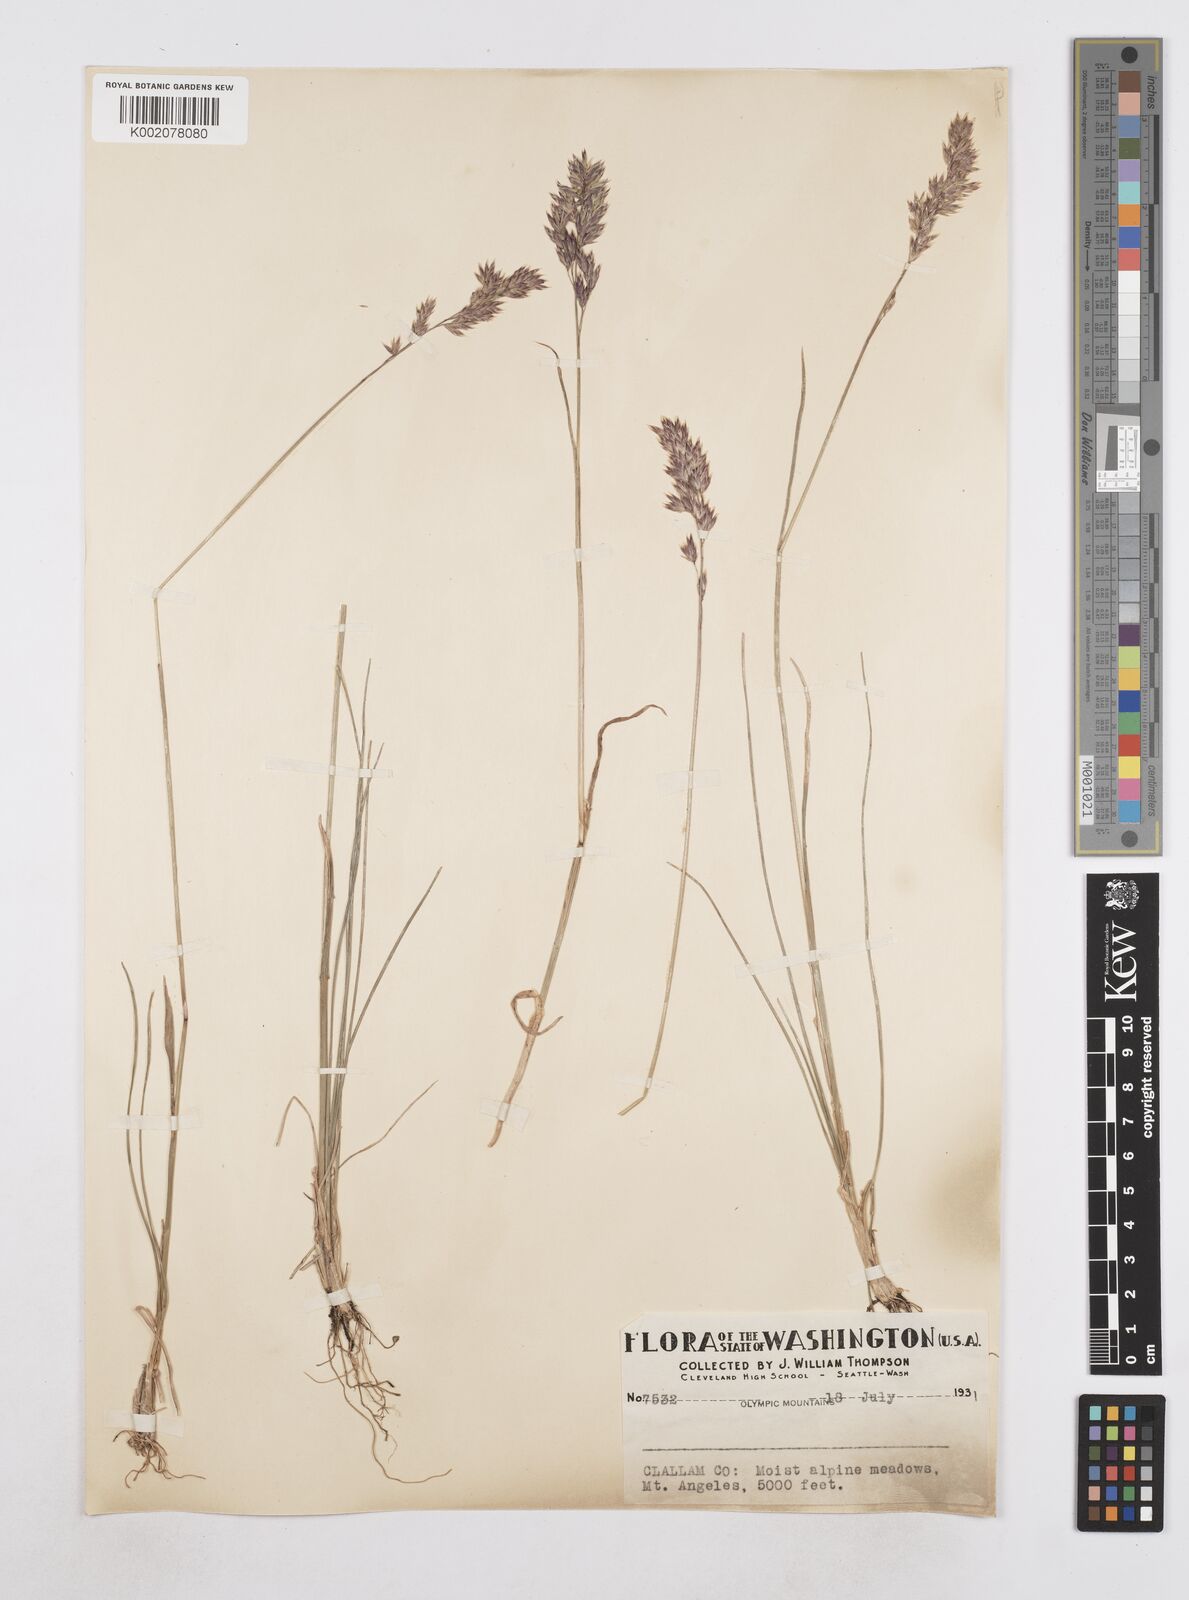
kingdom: Plantae
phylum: Tracheophyta
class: Liliopsida
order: Poales
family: Poaceae
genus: Poa
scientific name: Poa
